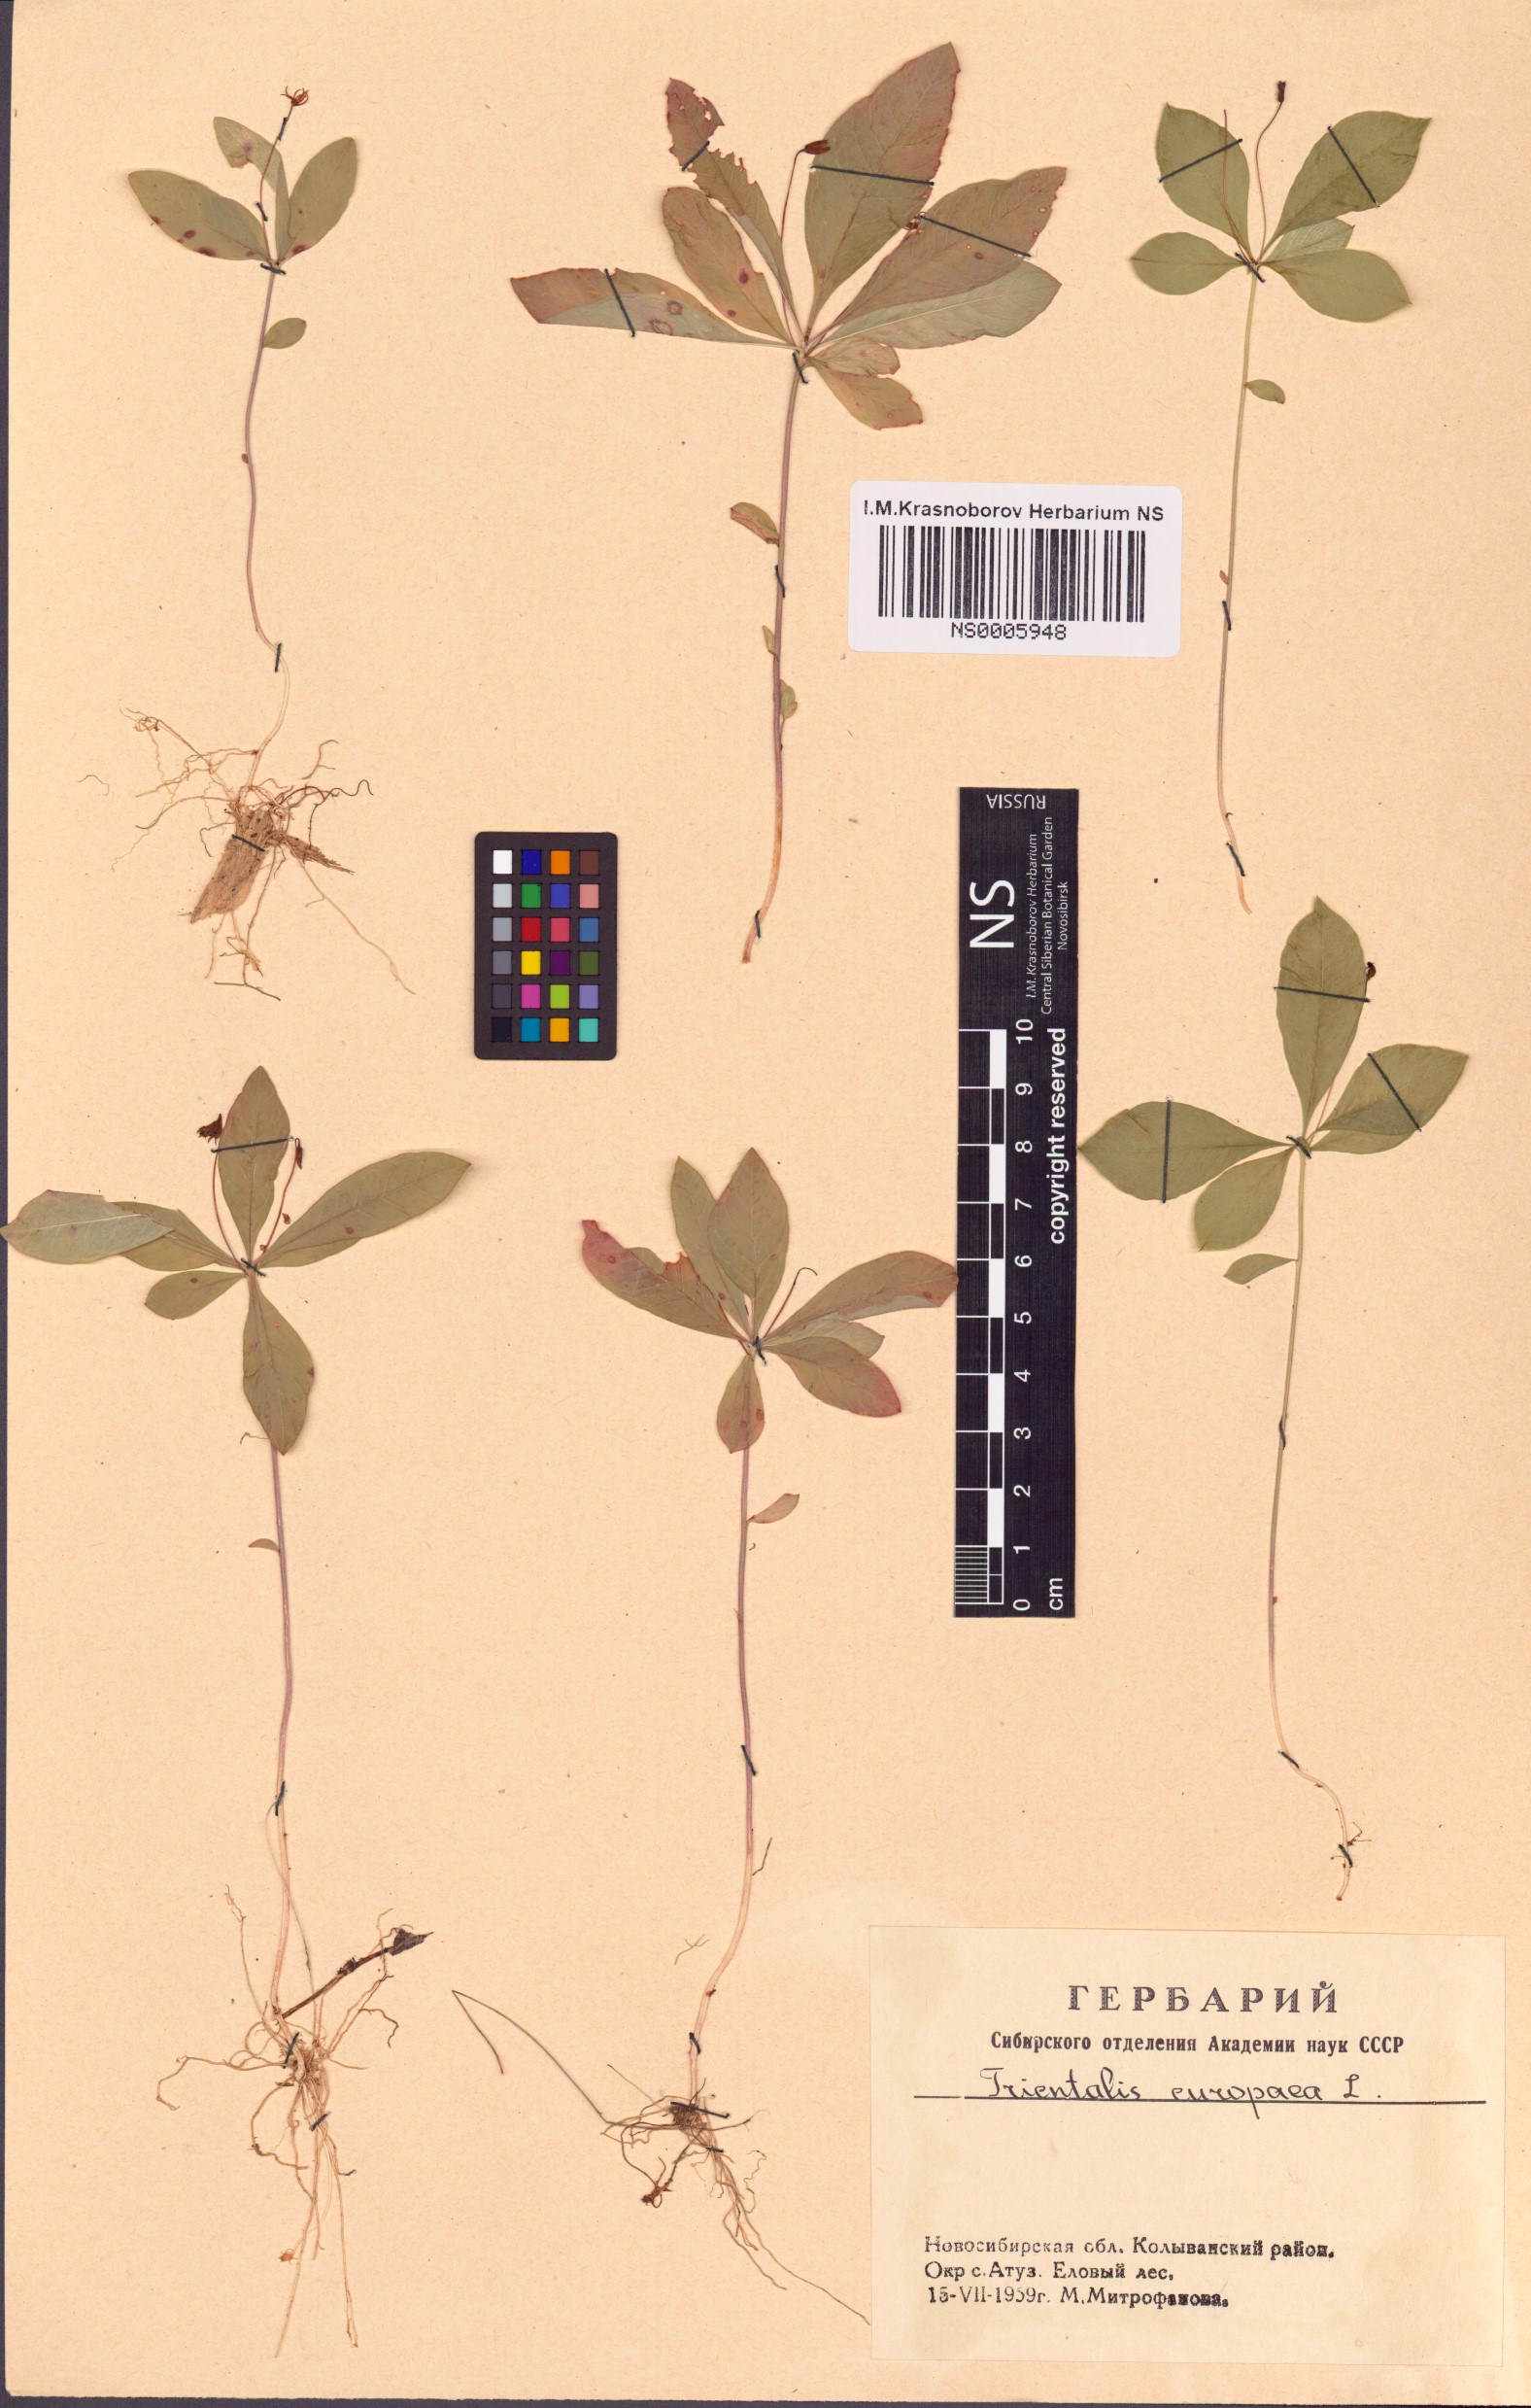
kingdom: Plantae
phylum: Tracheophyta
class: Magnoliopsida
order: Ericales
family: Primulaceae
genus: Lysimachia
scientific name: Lysimachia europaea
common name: Arctic starflower
